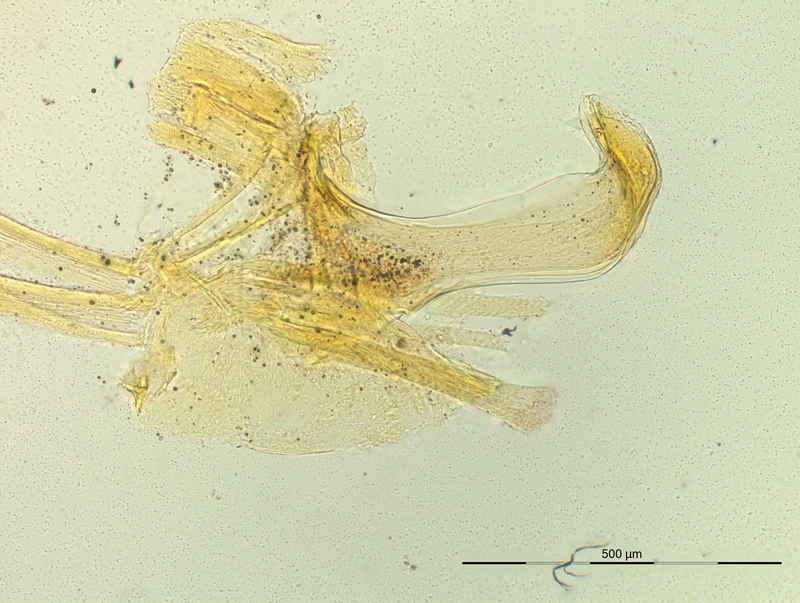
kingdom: Animalia
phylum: Arthropoda
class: Diplopoda
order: Chordeumatida
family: Craspedosomatidae
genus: Pyrgocyphosoma
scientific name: Pyrgocyphosoma bidentatum
